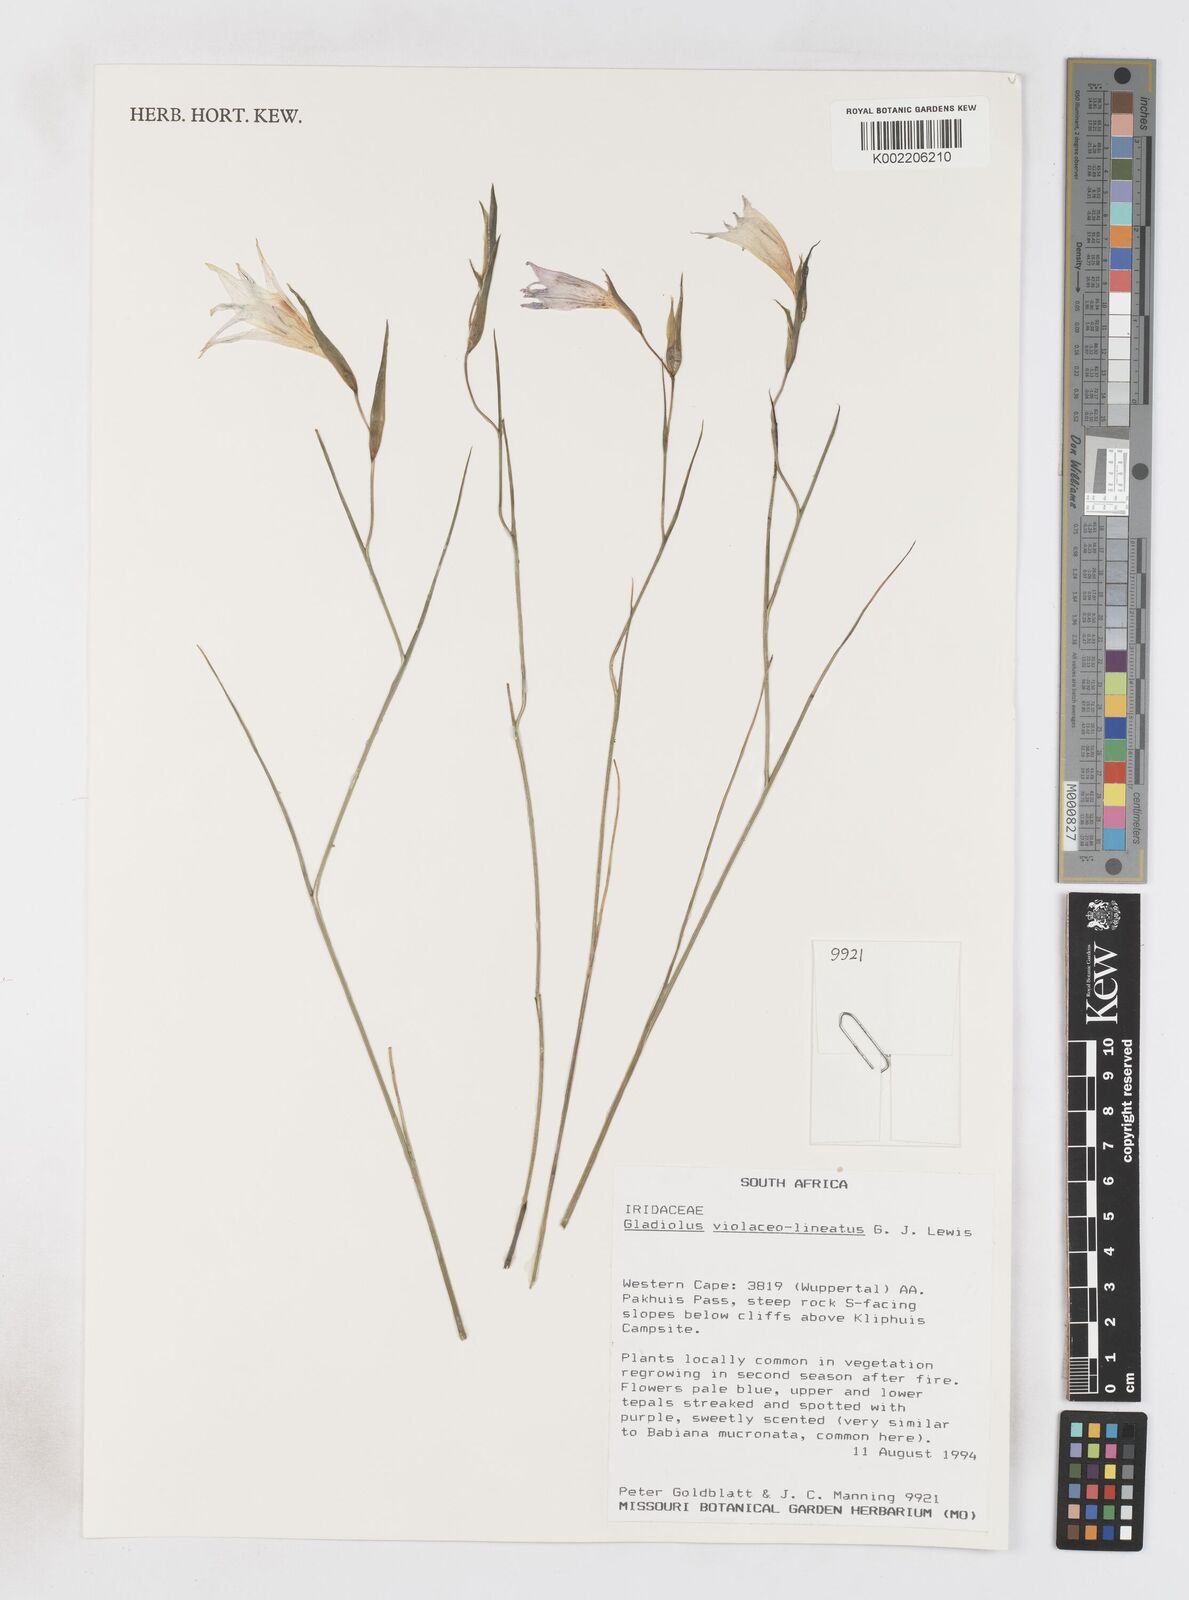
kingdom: Plantae
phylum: Tracheophyta
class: Liliopsida
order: Asparagales
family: Iridaceae
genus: Gladiolus
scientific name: Gladiolus violaceolineatus
